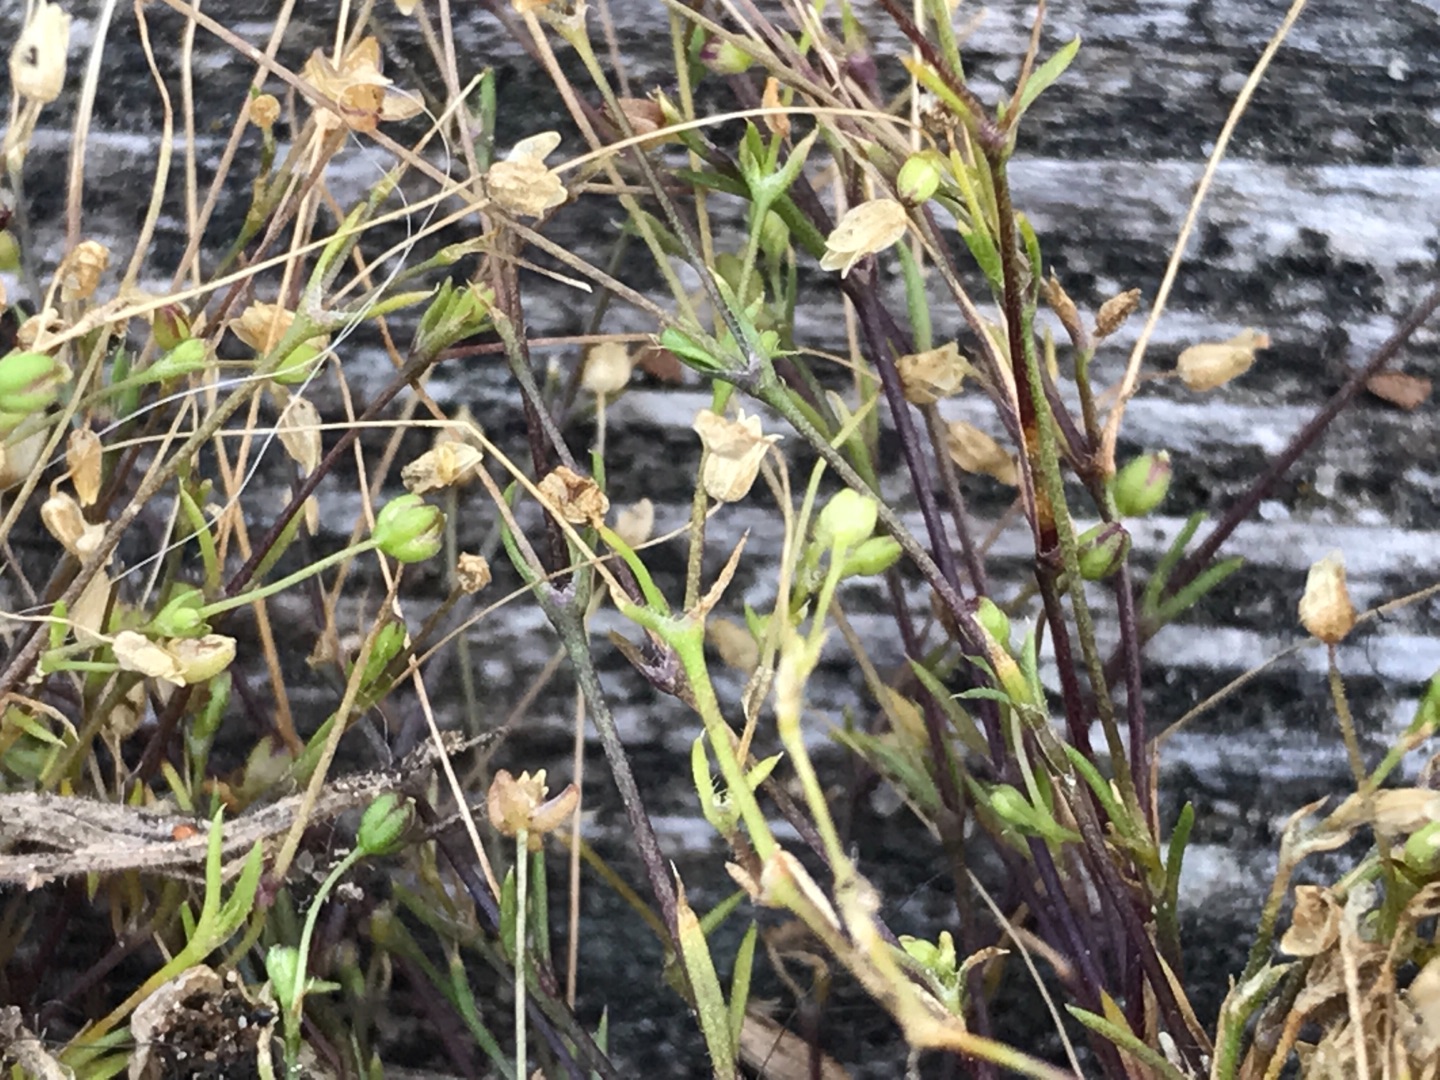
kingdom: Plantae
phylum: Tracheophyta
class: Magnoliopsida
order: Caryophyllales
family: Caryophyllaceae
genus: Sagina
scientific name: Sagina micropetala
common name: Håret firling
